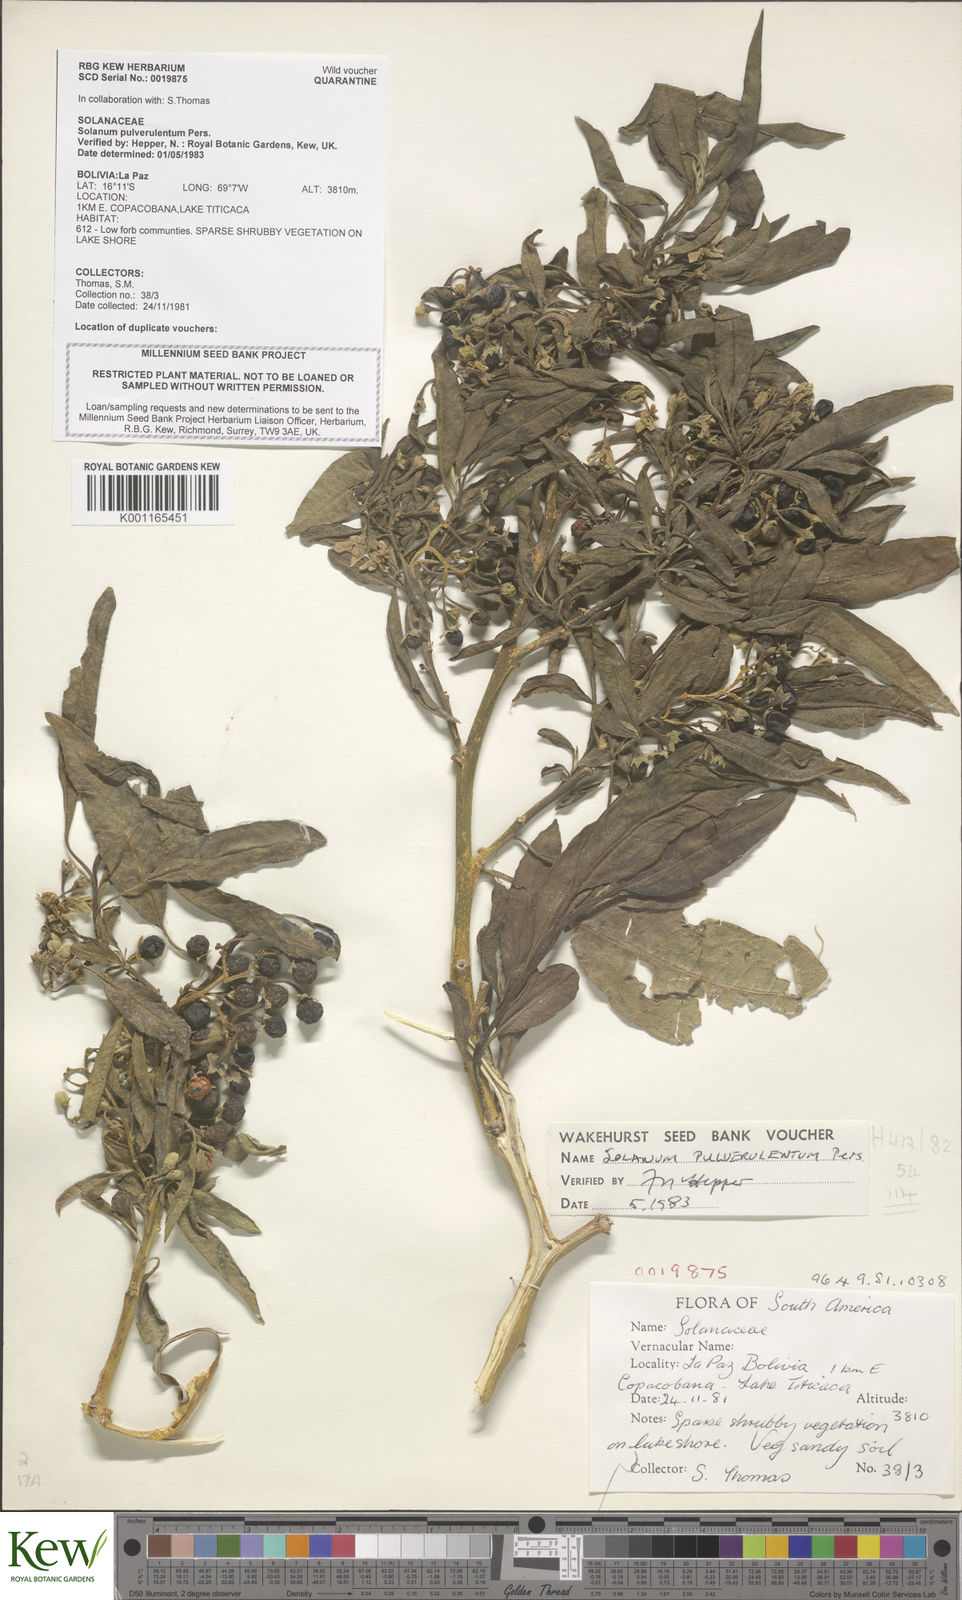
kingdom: Plantae
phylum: Tracheophyta
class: Magnoliopsida
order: Solanales
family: Solanaceae
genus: Solanum
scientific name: Solanum cutervanum
